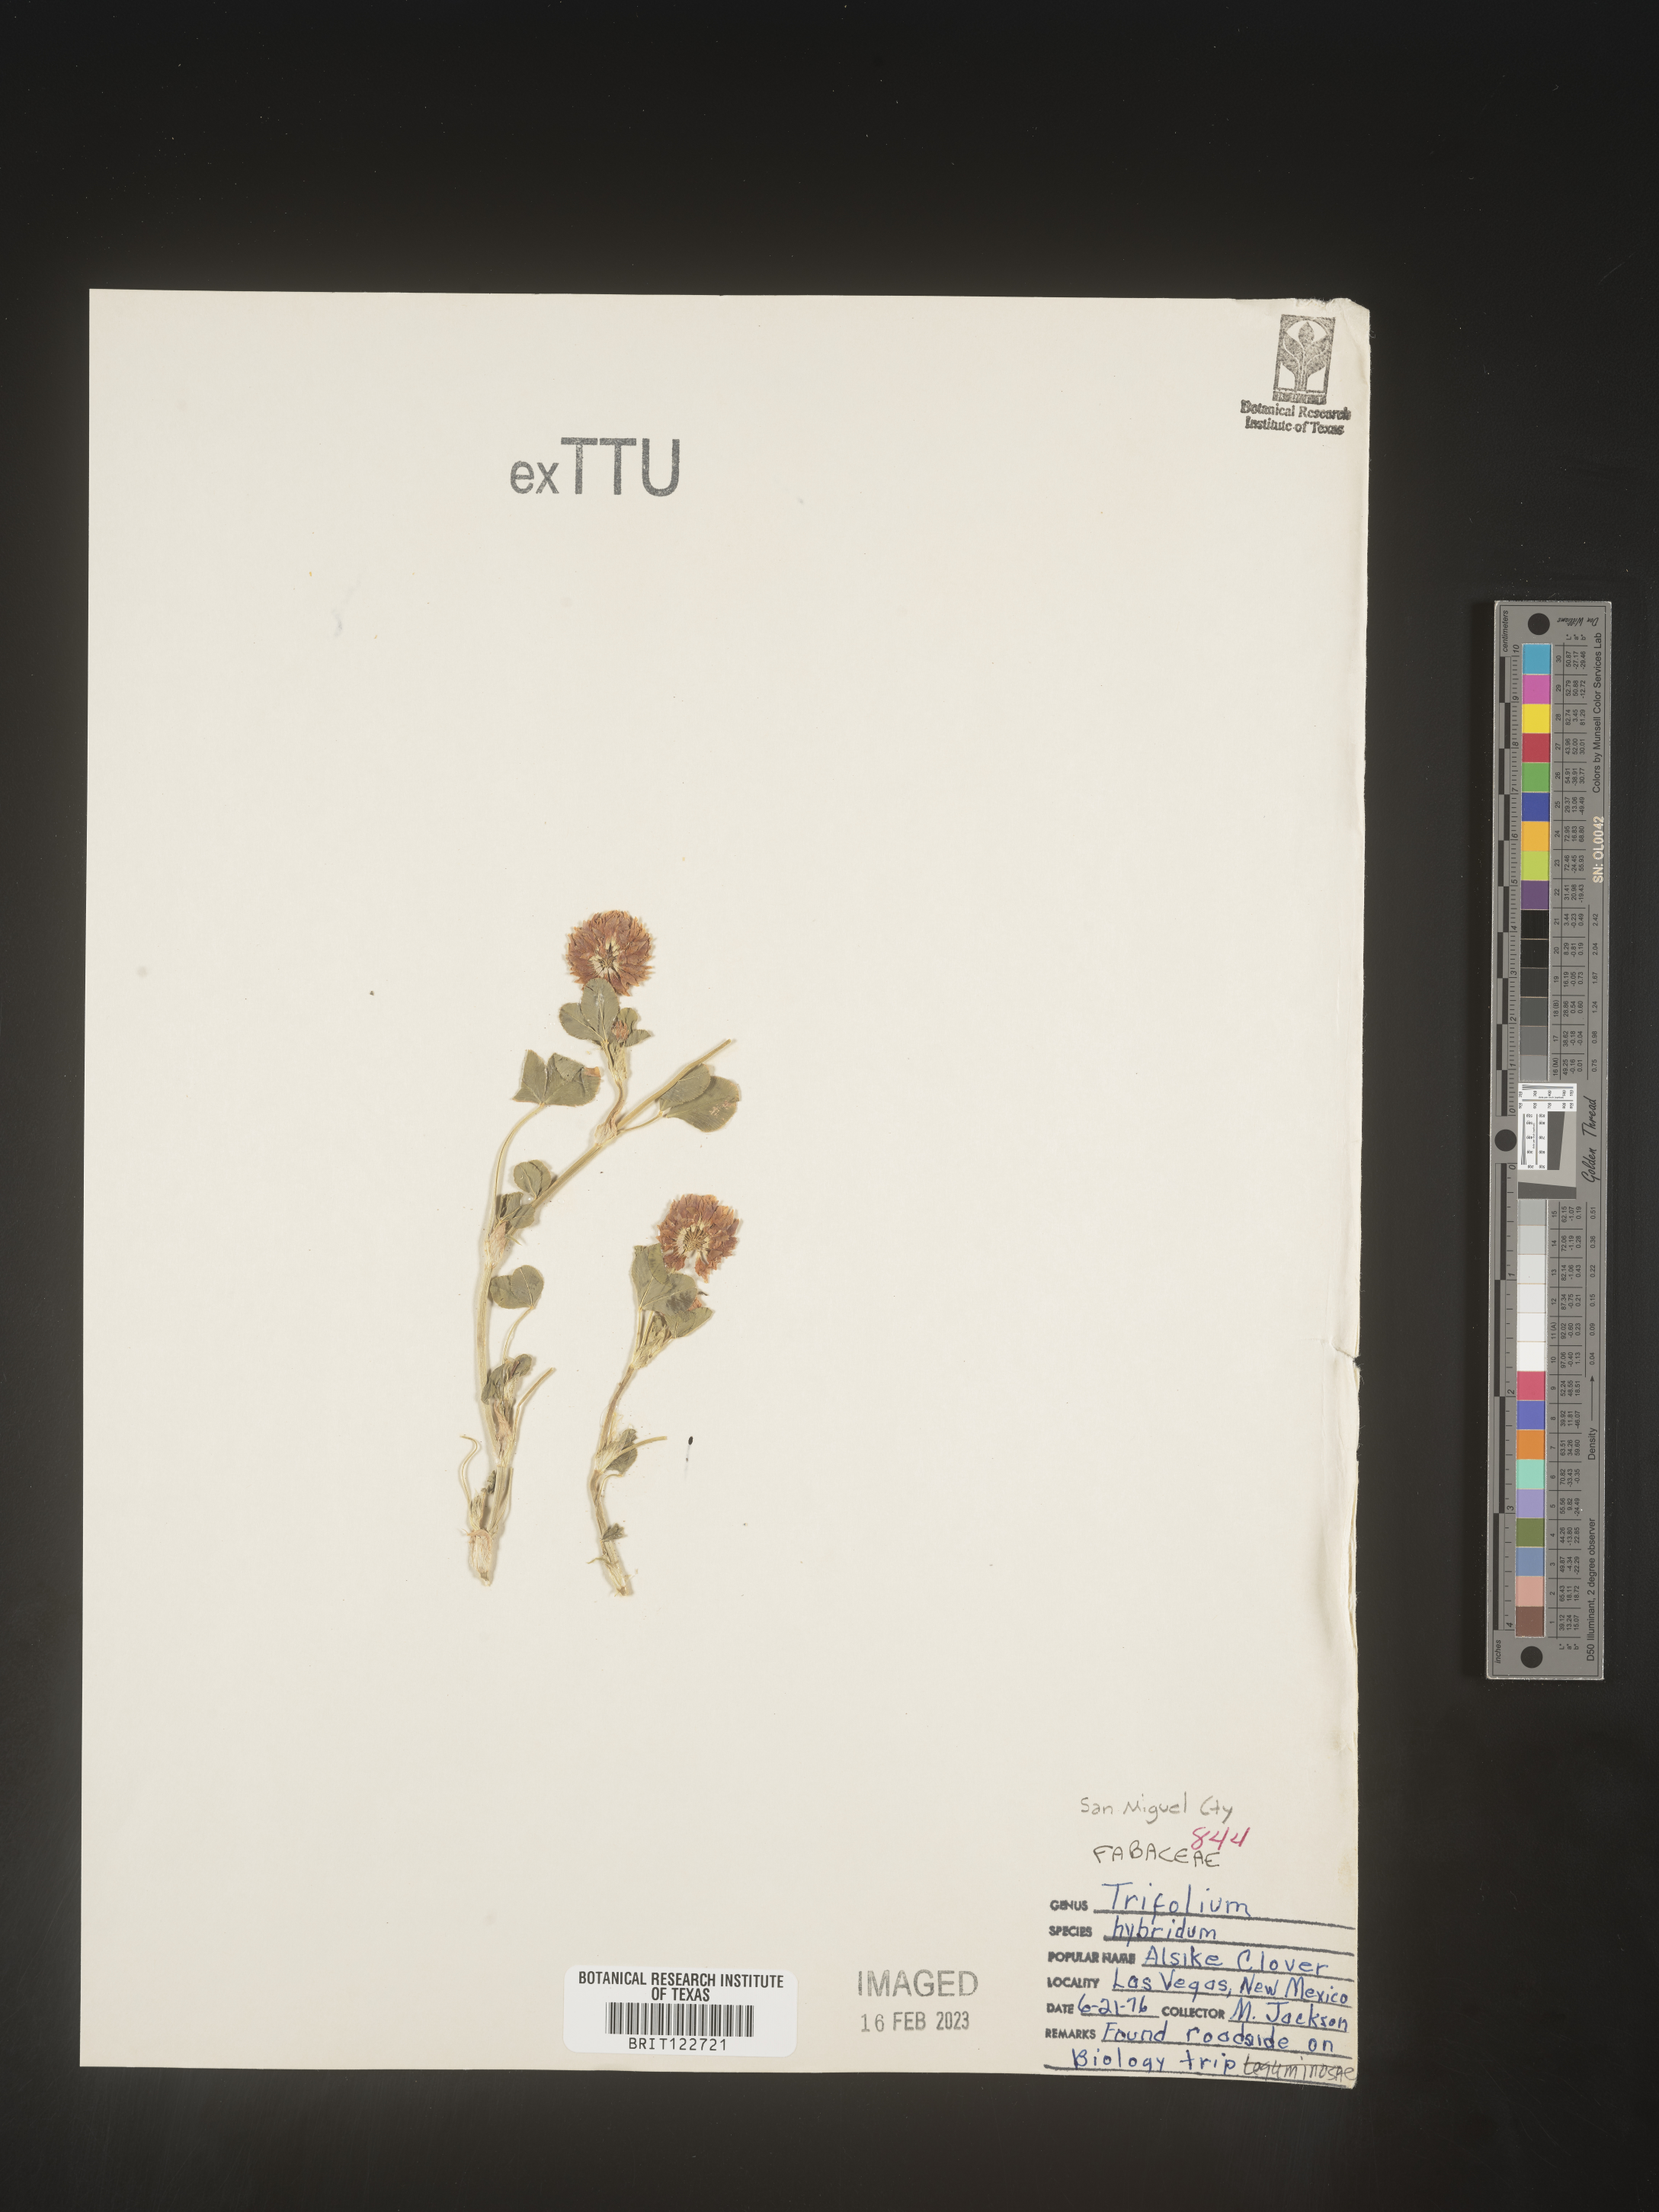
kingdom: Plantae
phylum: Tracheophyta
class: Magnoliopsida
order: Fabales
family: Fabaceae
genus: Trifolium
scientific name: Trifolium hybridum
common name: Alsike clover
